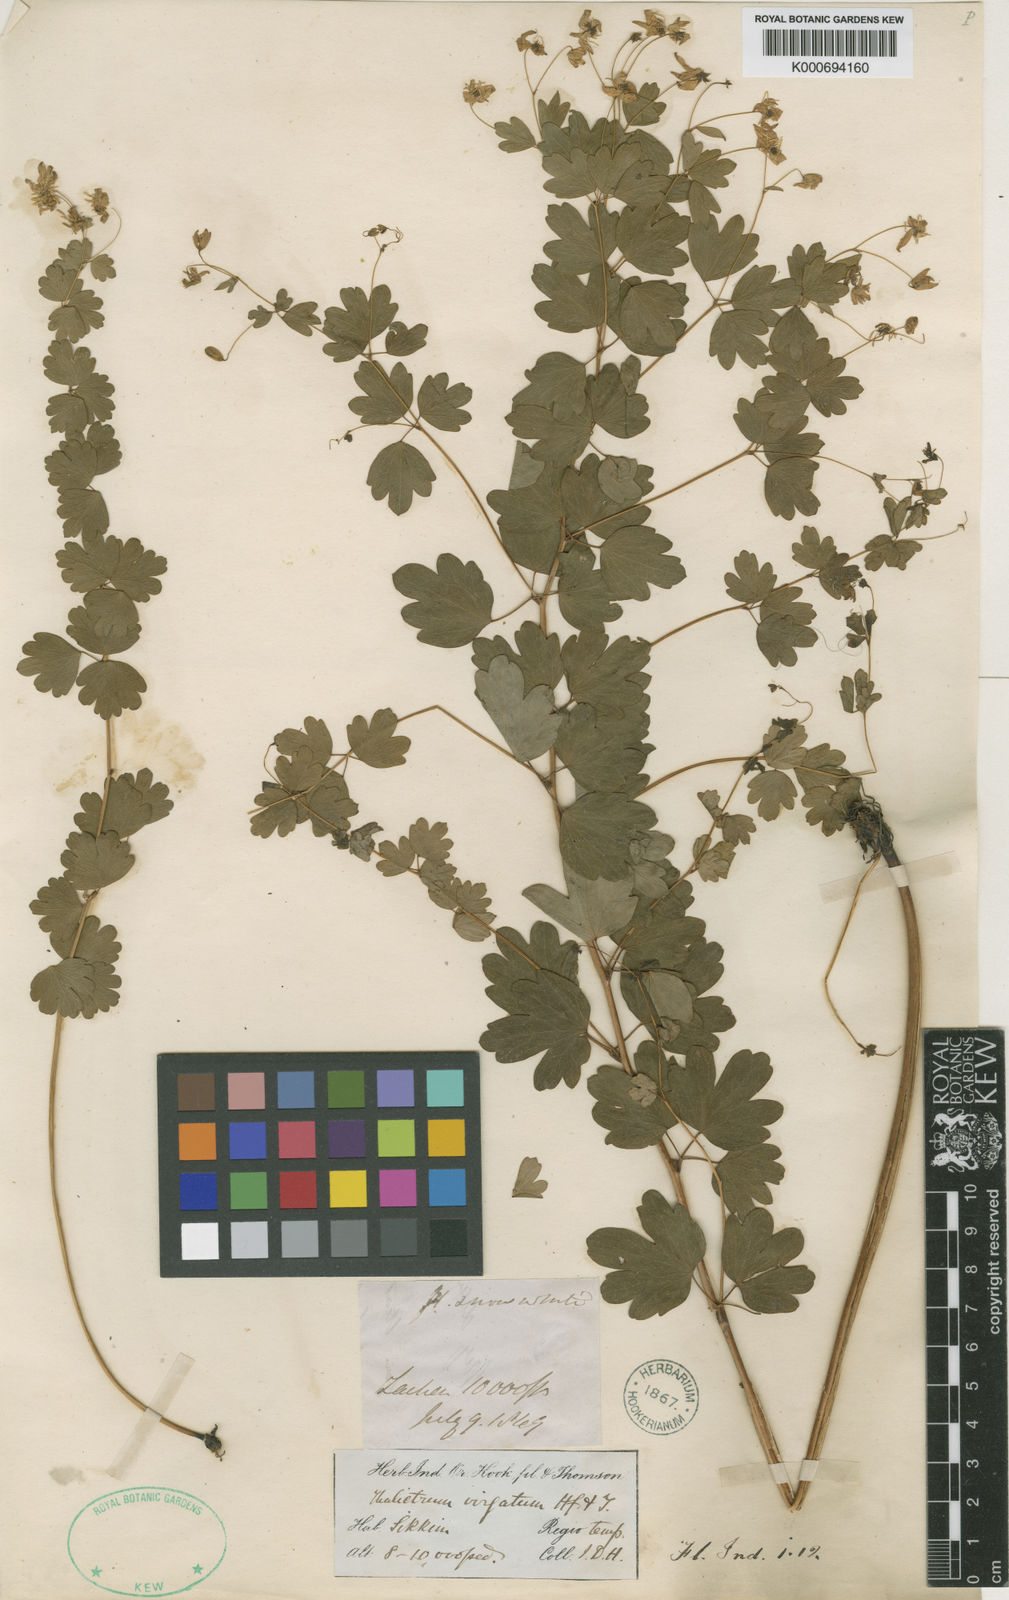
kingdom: Plantae
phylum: Tracheophyta
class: Magnoliopsida
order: Ranunculales
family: Ranunculaceae
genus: Thalictrum
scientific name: Thalictrum virgatum
